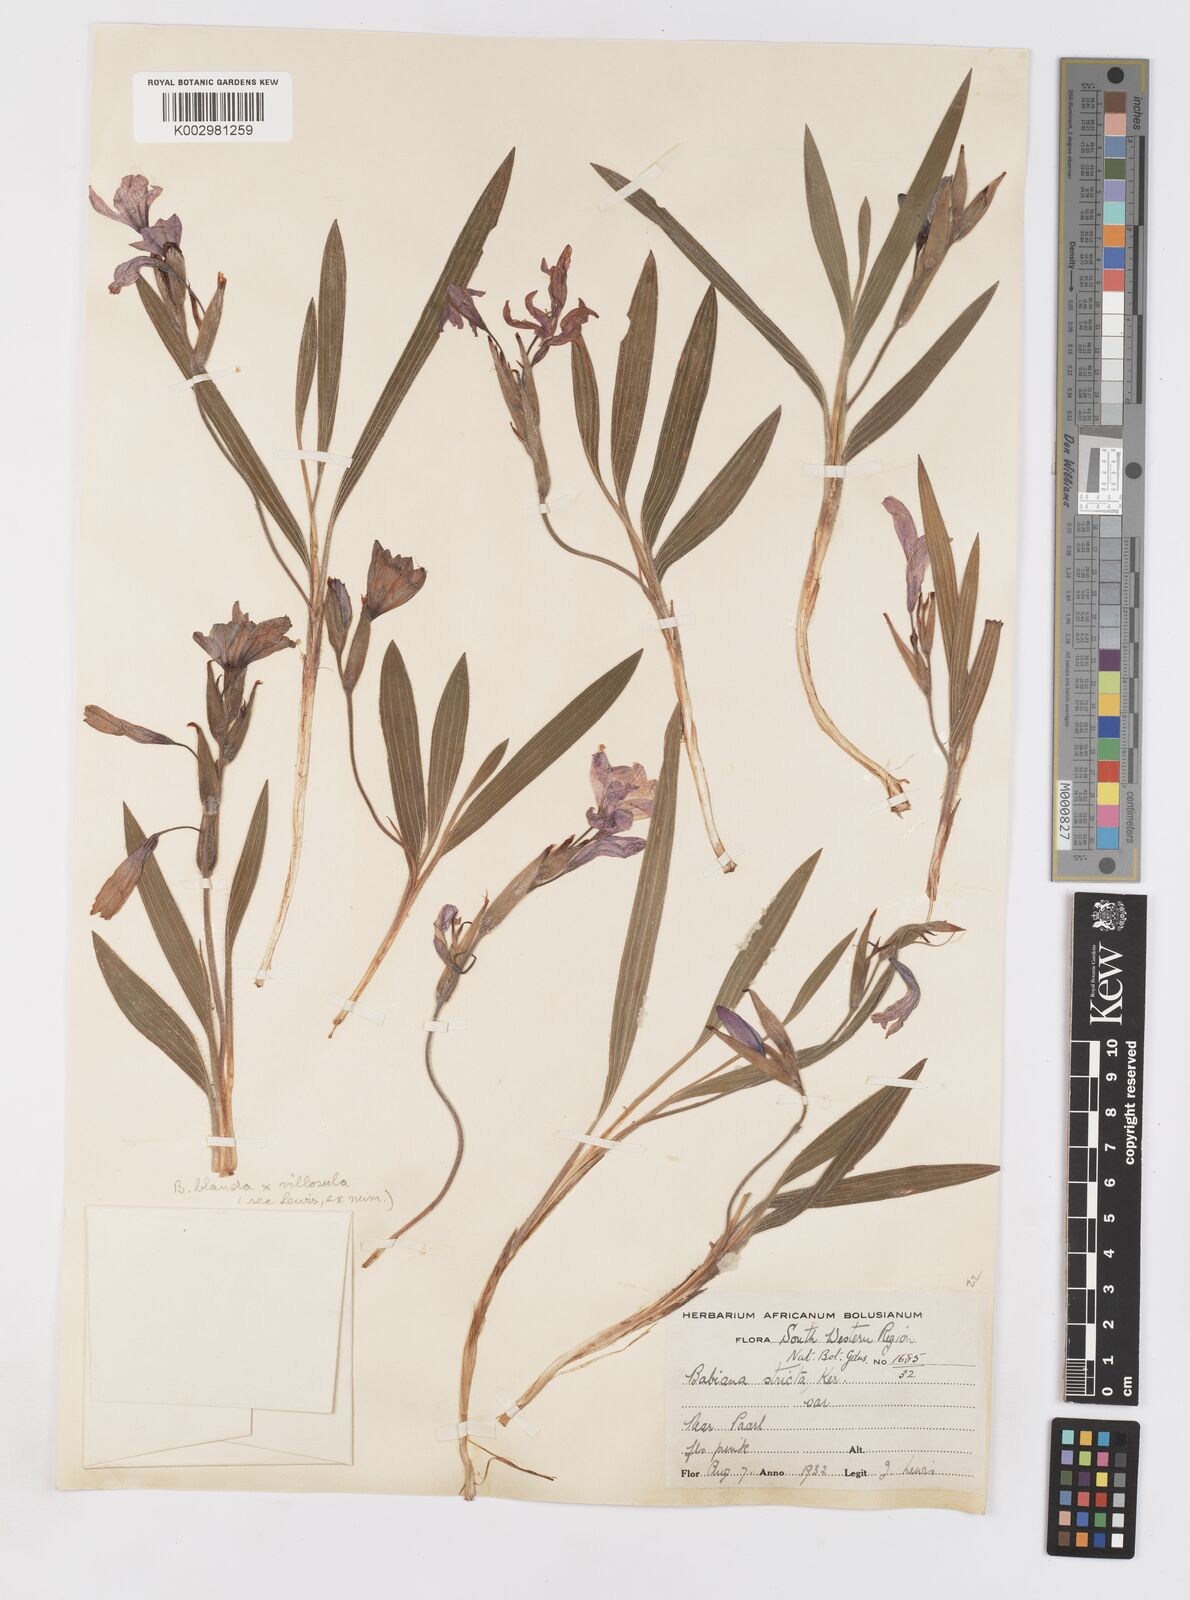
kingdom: Plantae
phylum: Tracheophyta
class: Liliopsida
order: Asparagales
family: Iridaceae
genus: Babiana
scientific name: Babiana blanda
